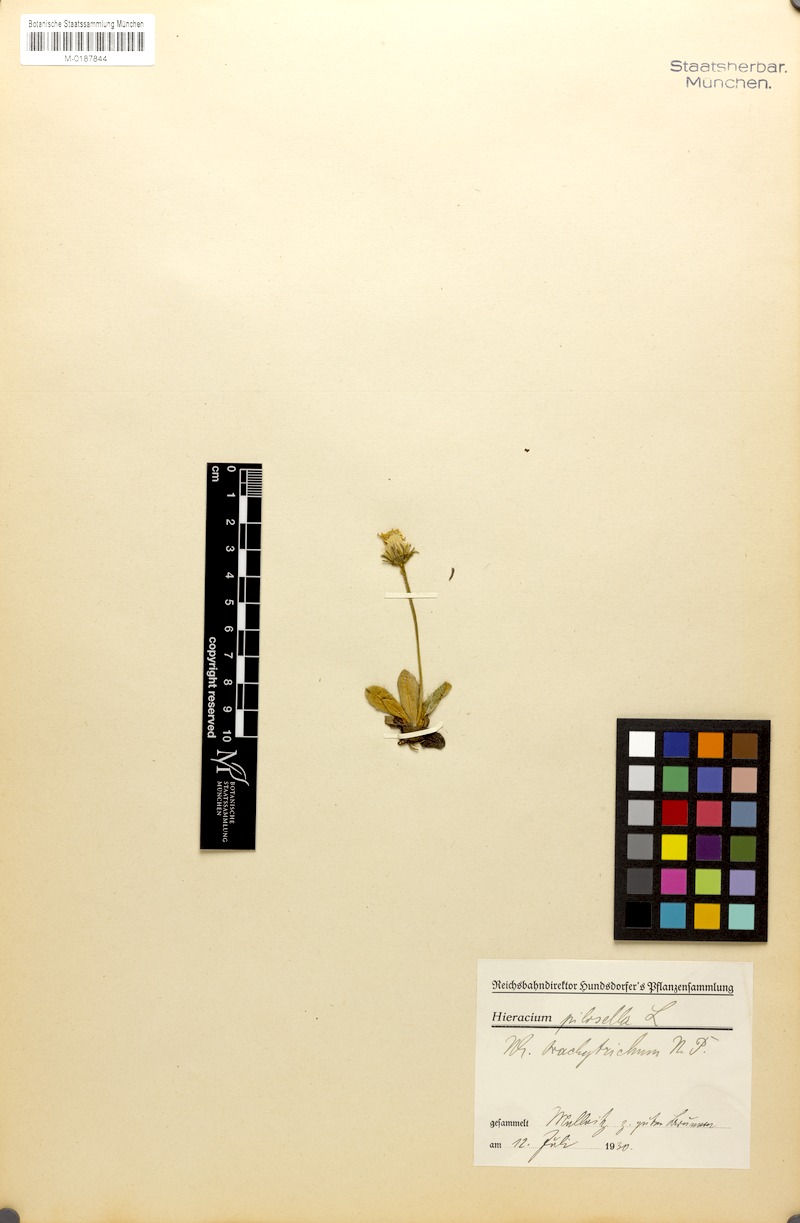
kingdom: Plantae
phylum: Tracheophyta
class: Magnoliopsida
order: Asterales
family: Asteraceae
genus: Pilosella
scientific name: Pilosella officinarum
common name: Mouse-ear hawkweed
